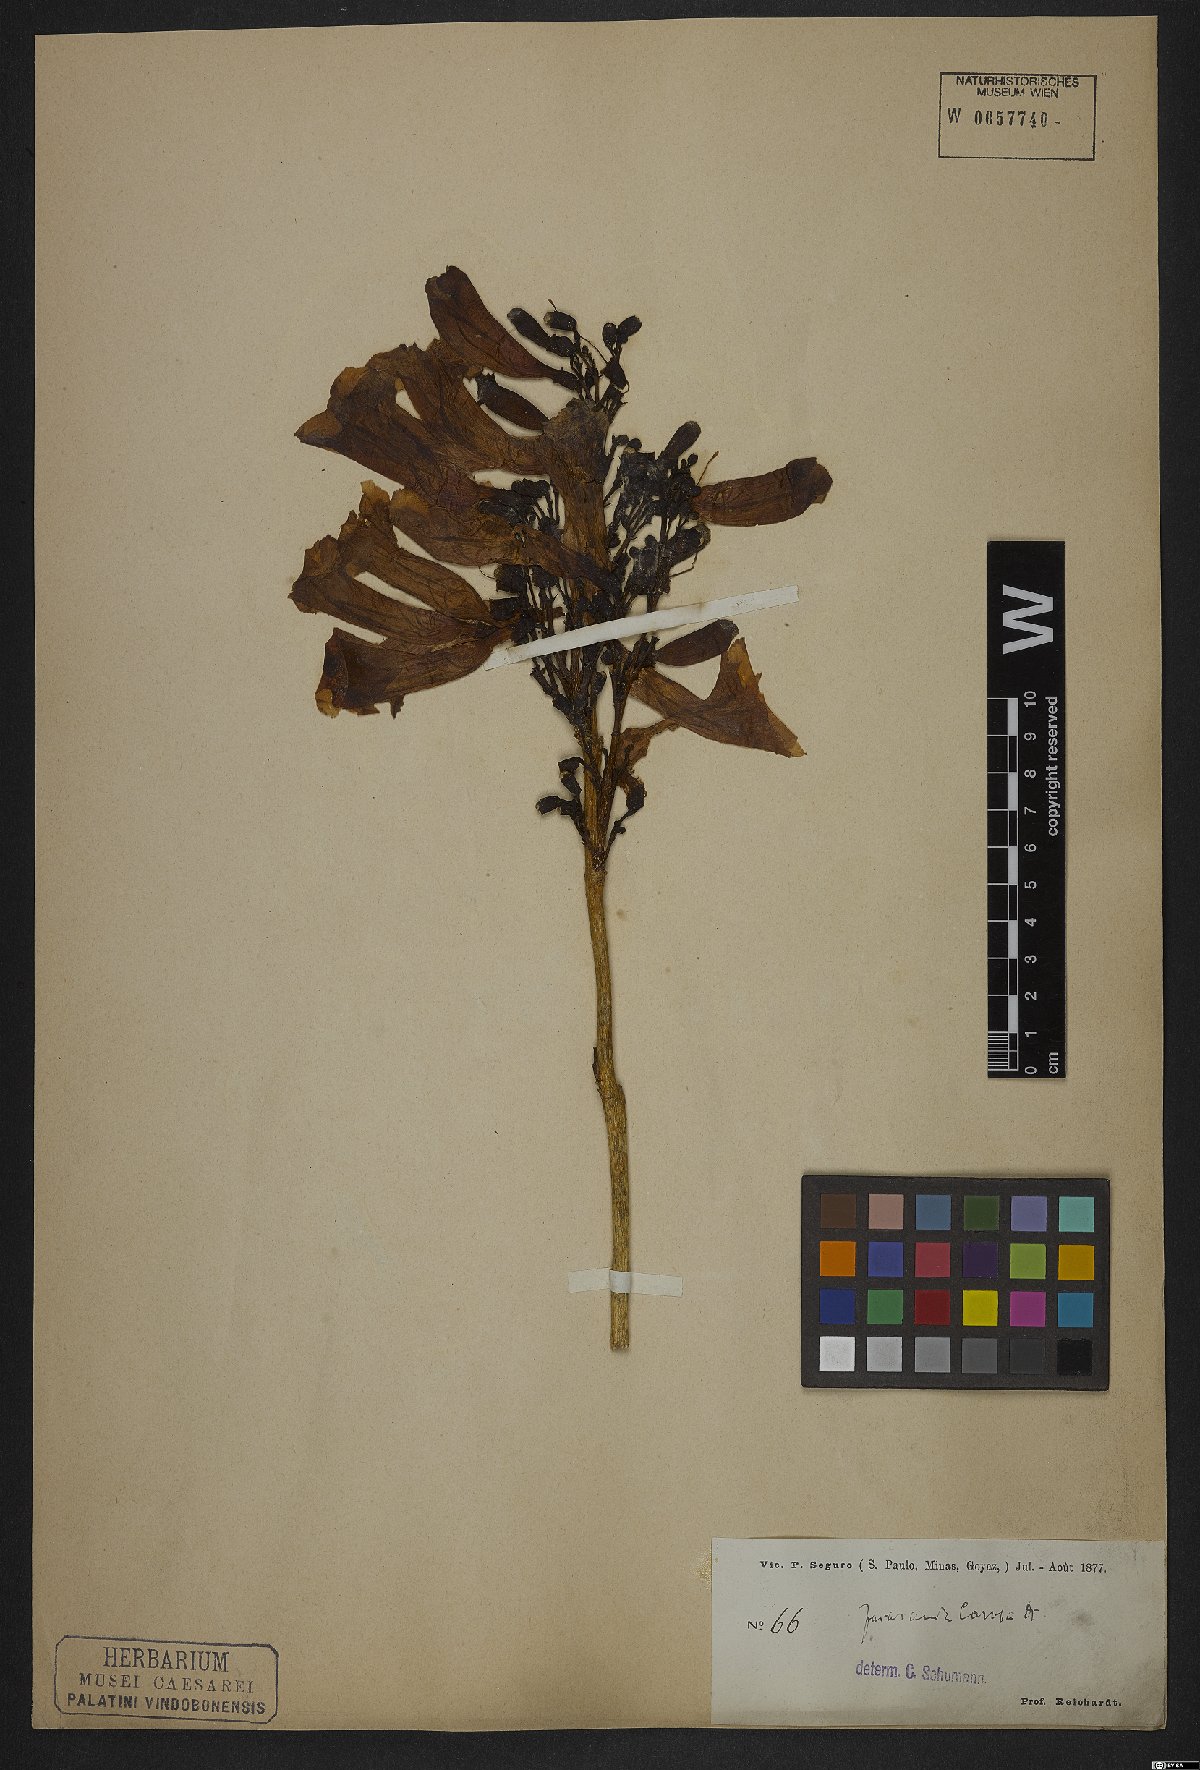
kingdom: Plantae
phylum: Tracheophyta
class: Magnoliopsida
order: Lamiales
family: Bignoniaceae
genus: Jacaranda
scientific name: Jacaranda caroba
